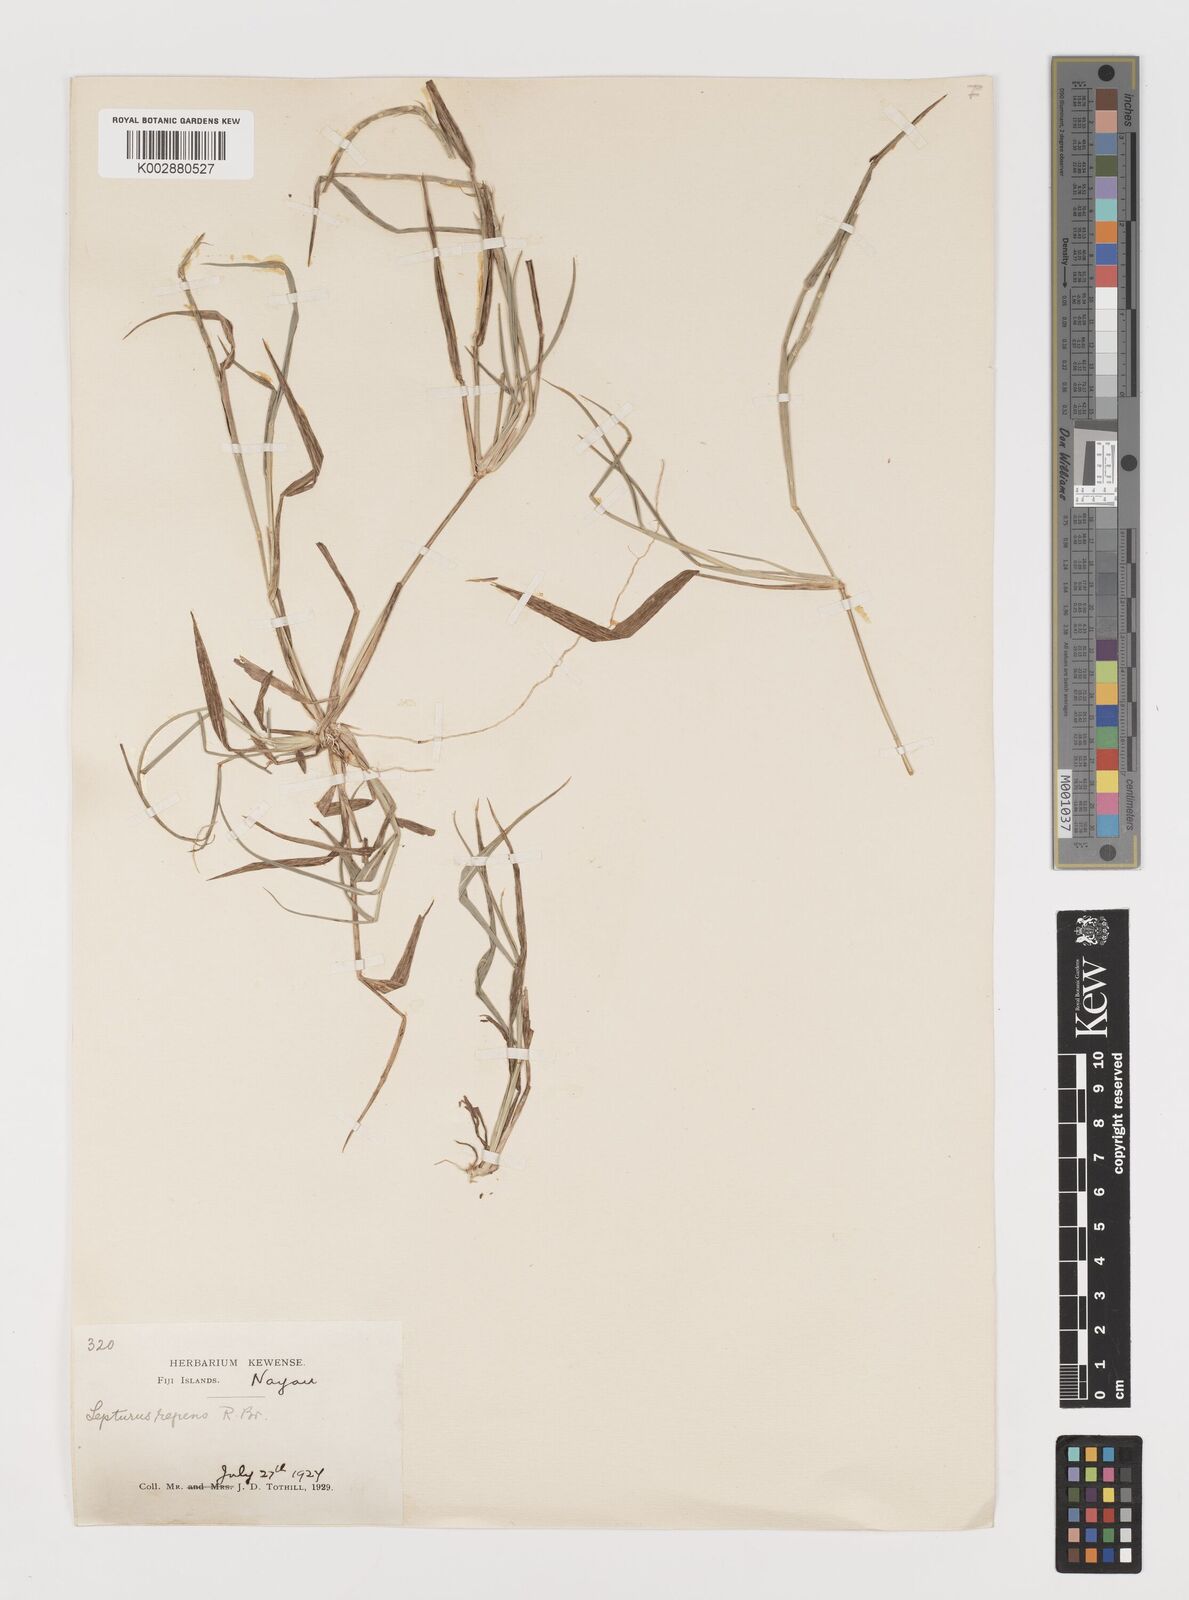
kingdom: Plantae
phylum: Tracheophyta
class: Liliopsida
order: Poales
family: Poaceae
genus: Lepturus
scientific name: Lepturus repens
